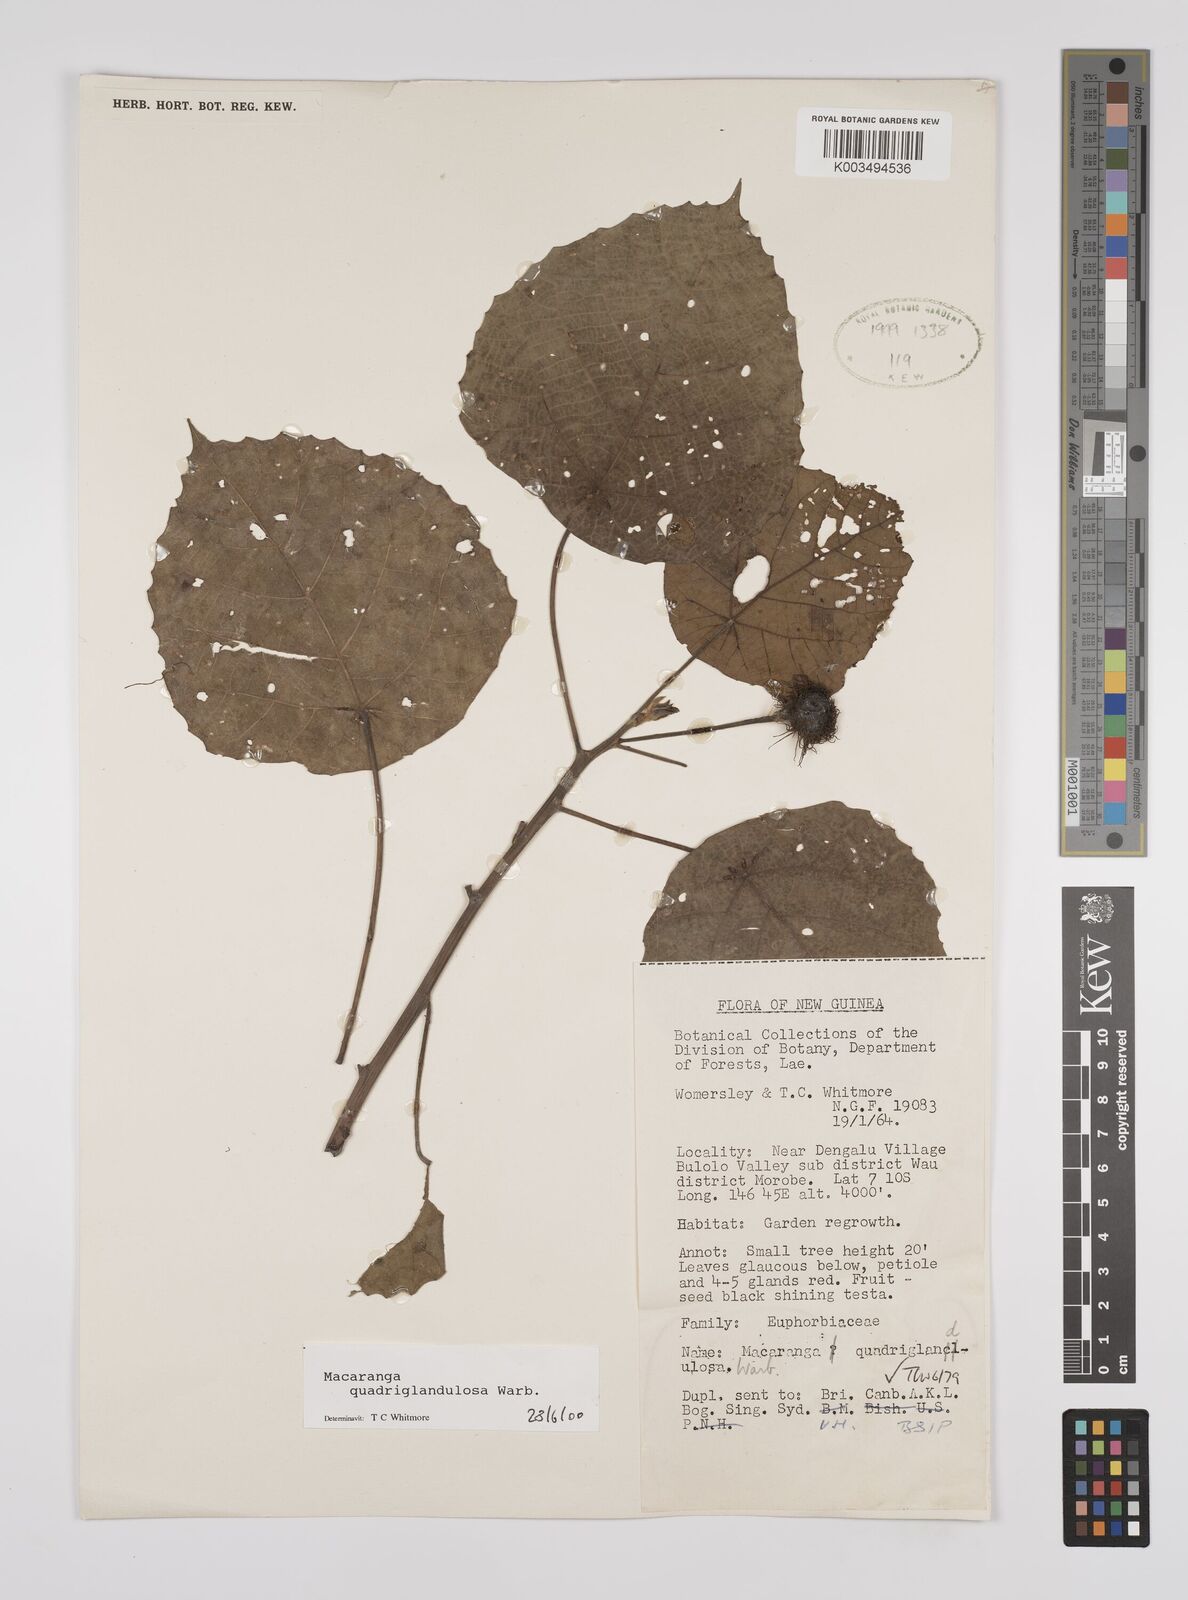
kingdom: Plantae
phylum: Tracheophyta
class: Magnoliopsida
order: Malpighiales
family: Euphorbiaceae
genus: Macaranga
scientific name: Macaranga quadriglandulosa
